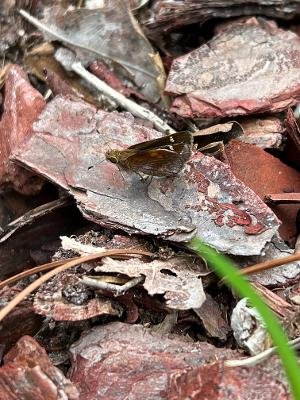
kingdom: Animalia
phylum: Arthropoda
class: Insecta
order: Lepidoptera
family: Hesperiidae
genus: Lon
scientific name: Lon zabulon
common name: Zabulon Skipper
